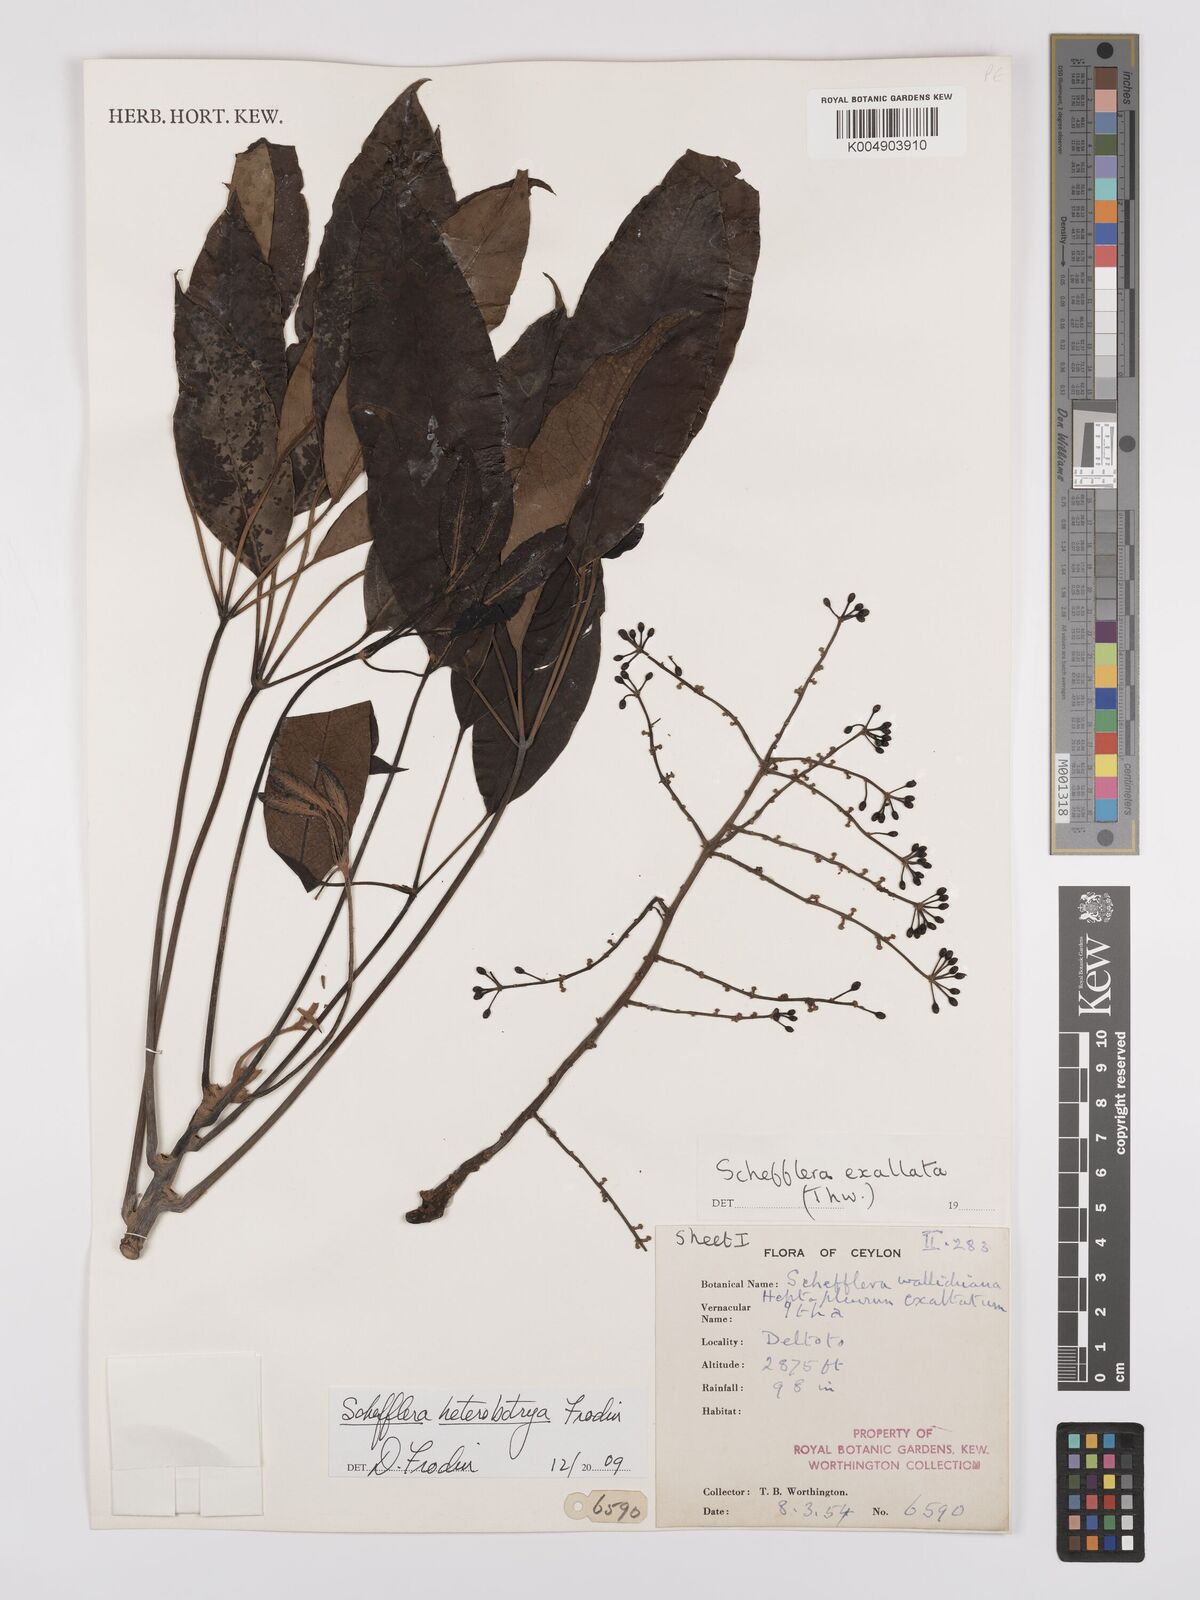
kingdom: Plantae
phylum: Tracheophyta
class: Magnoliopsida
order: Apiales
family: Araliaceae
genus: Heptapleurum
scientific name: Heptapleurum
